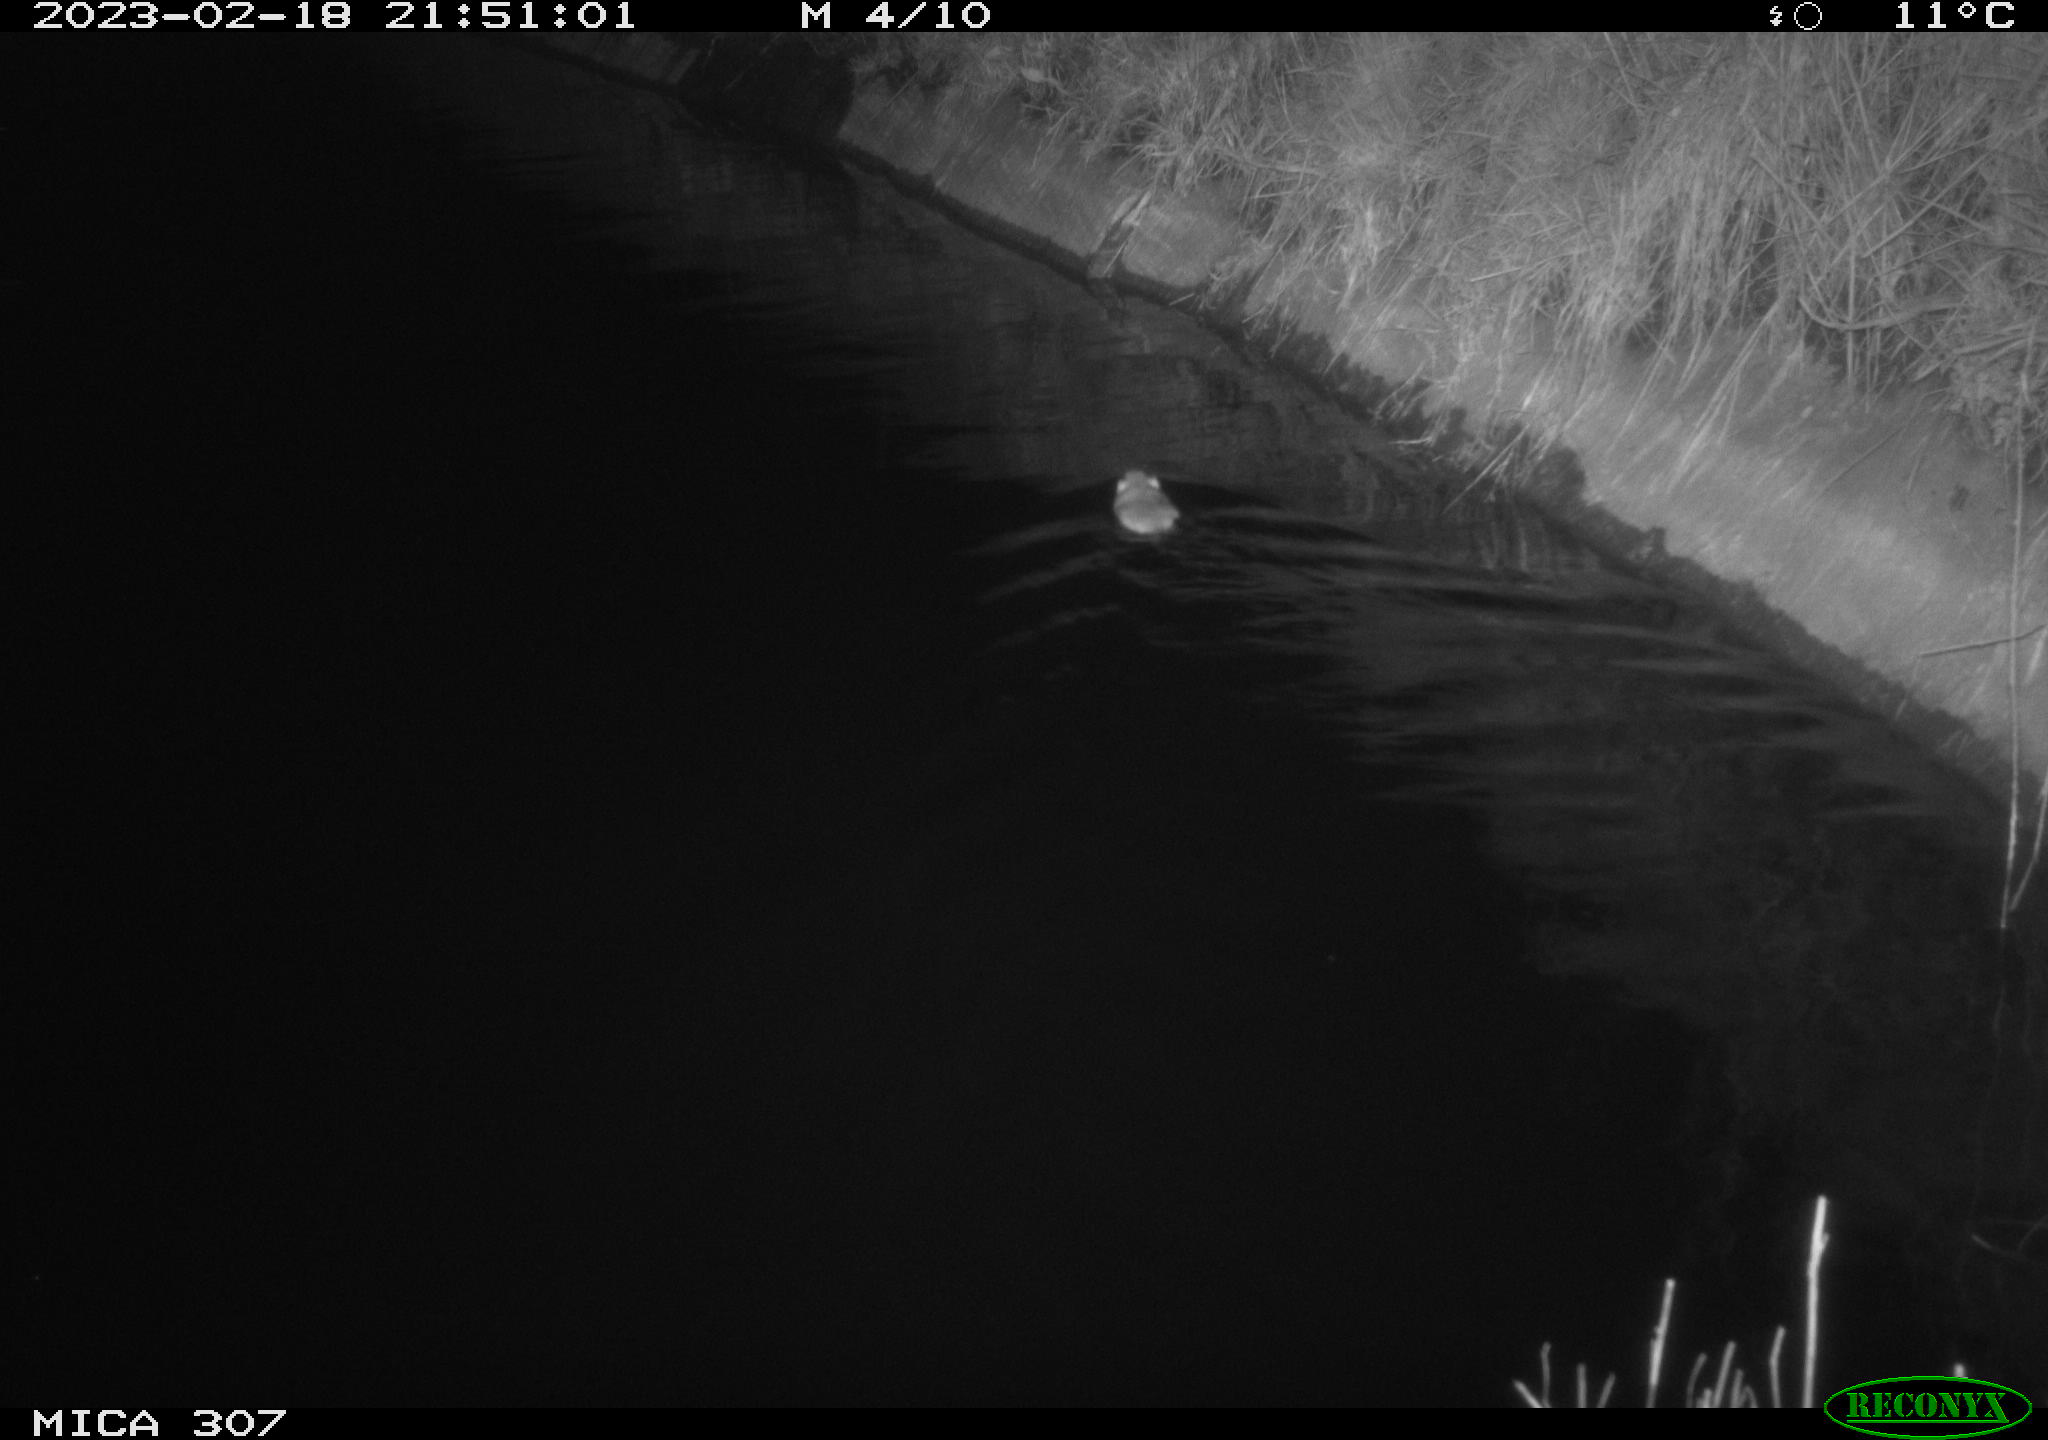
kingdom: Animalia
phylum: Chordata
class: Mammalia
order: Rodentia
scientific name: Rodentia
